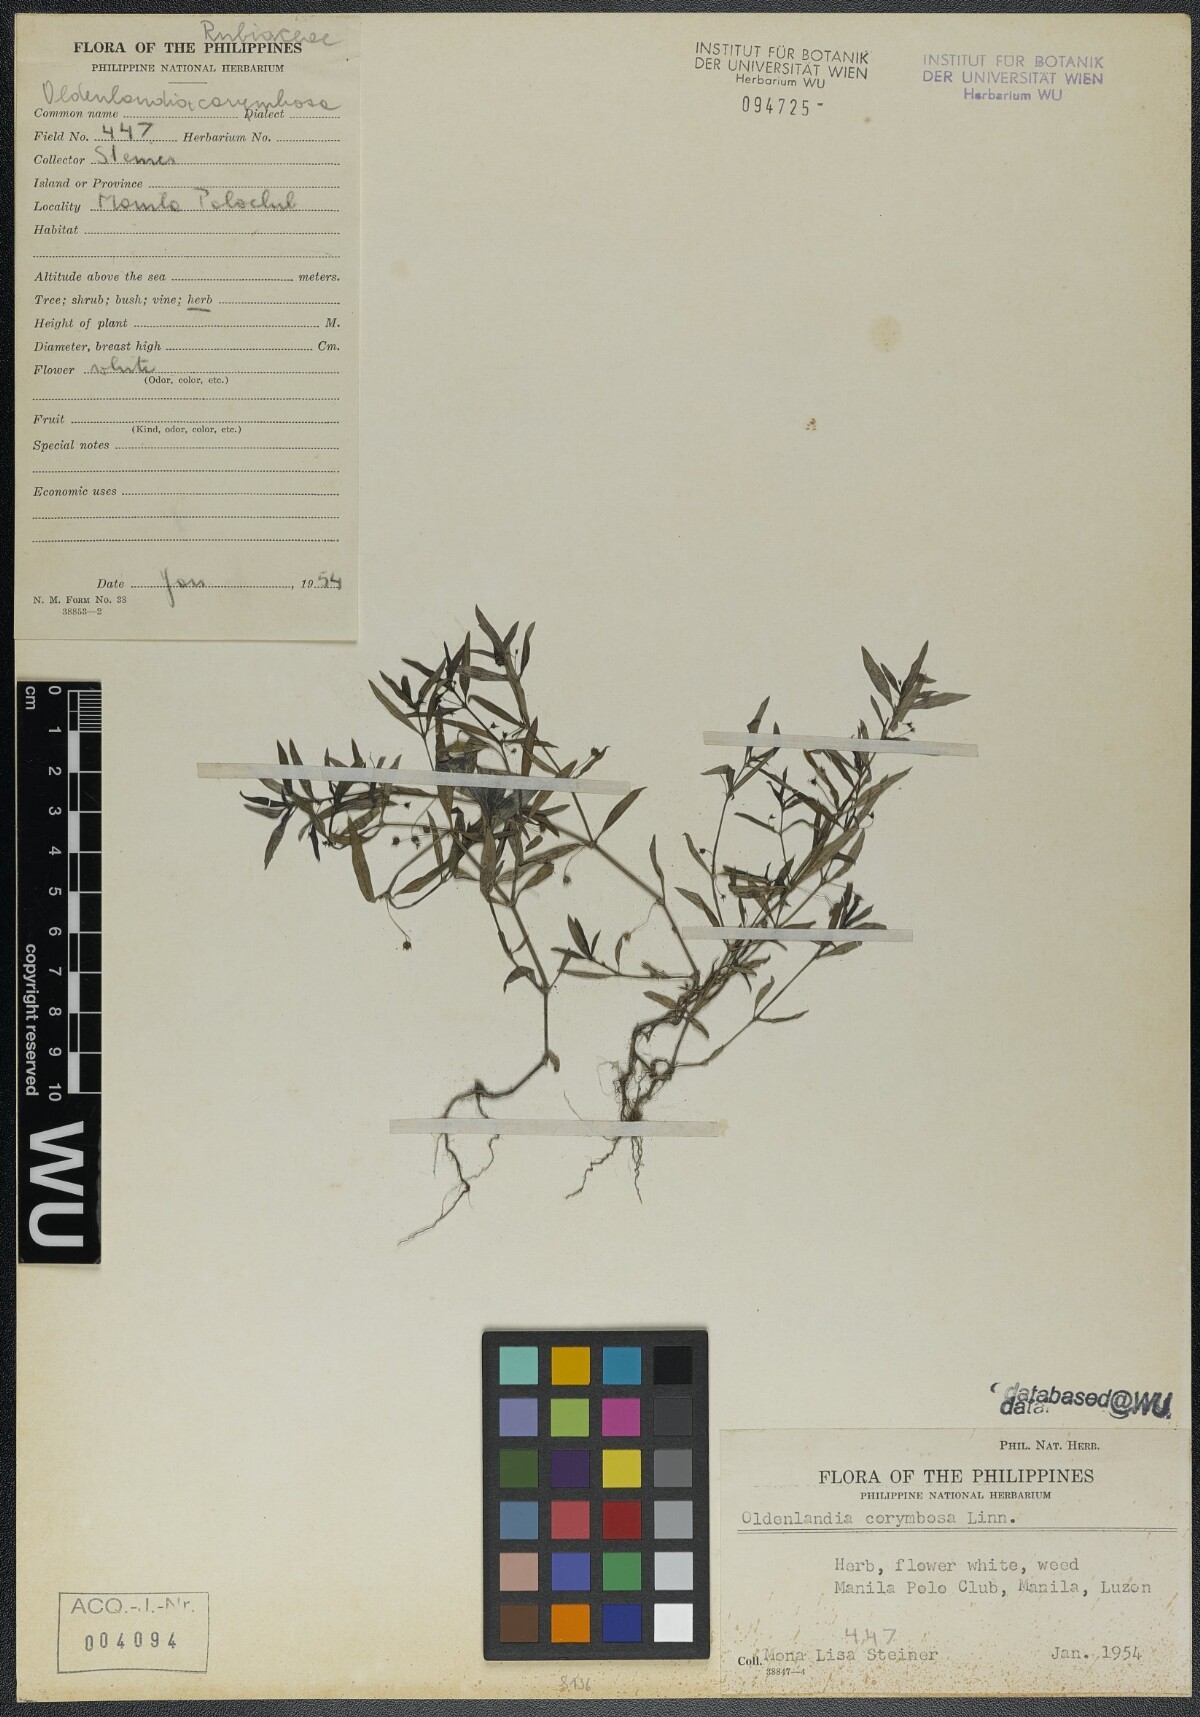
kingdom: Plantae
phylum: Tracheophyta
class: Magnoliopsida
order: Gentianales
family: Rubiaceae
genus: Oldenlandia
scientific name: Oldenlandia corymbosa
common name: Flat-top mille graines
